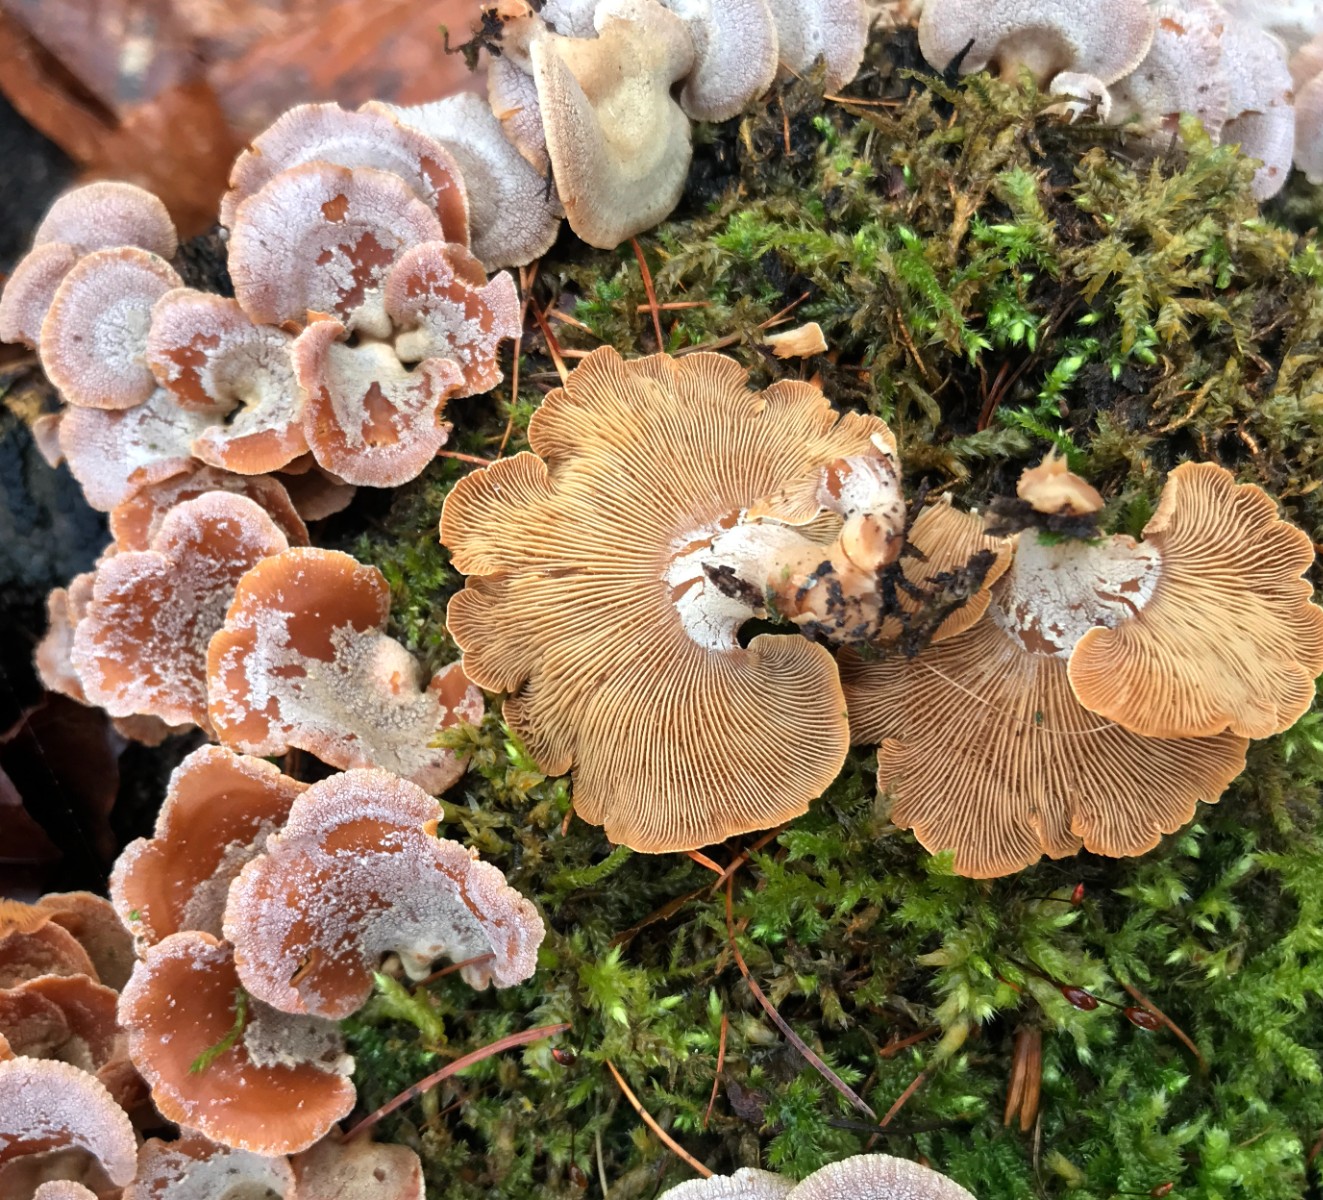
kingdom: Fungi
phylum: Basidiomycota
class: Agaricomycetes
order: Agaricales
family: Mycenaceae
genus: Panellus
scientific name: Panellus stipticus
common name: kliddet epaulethat
